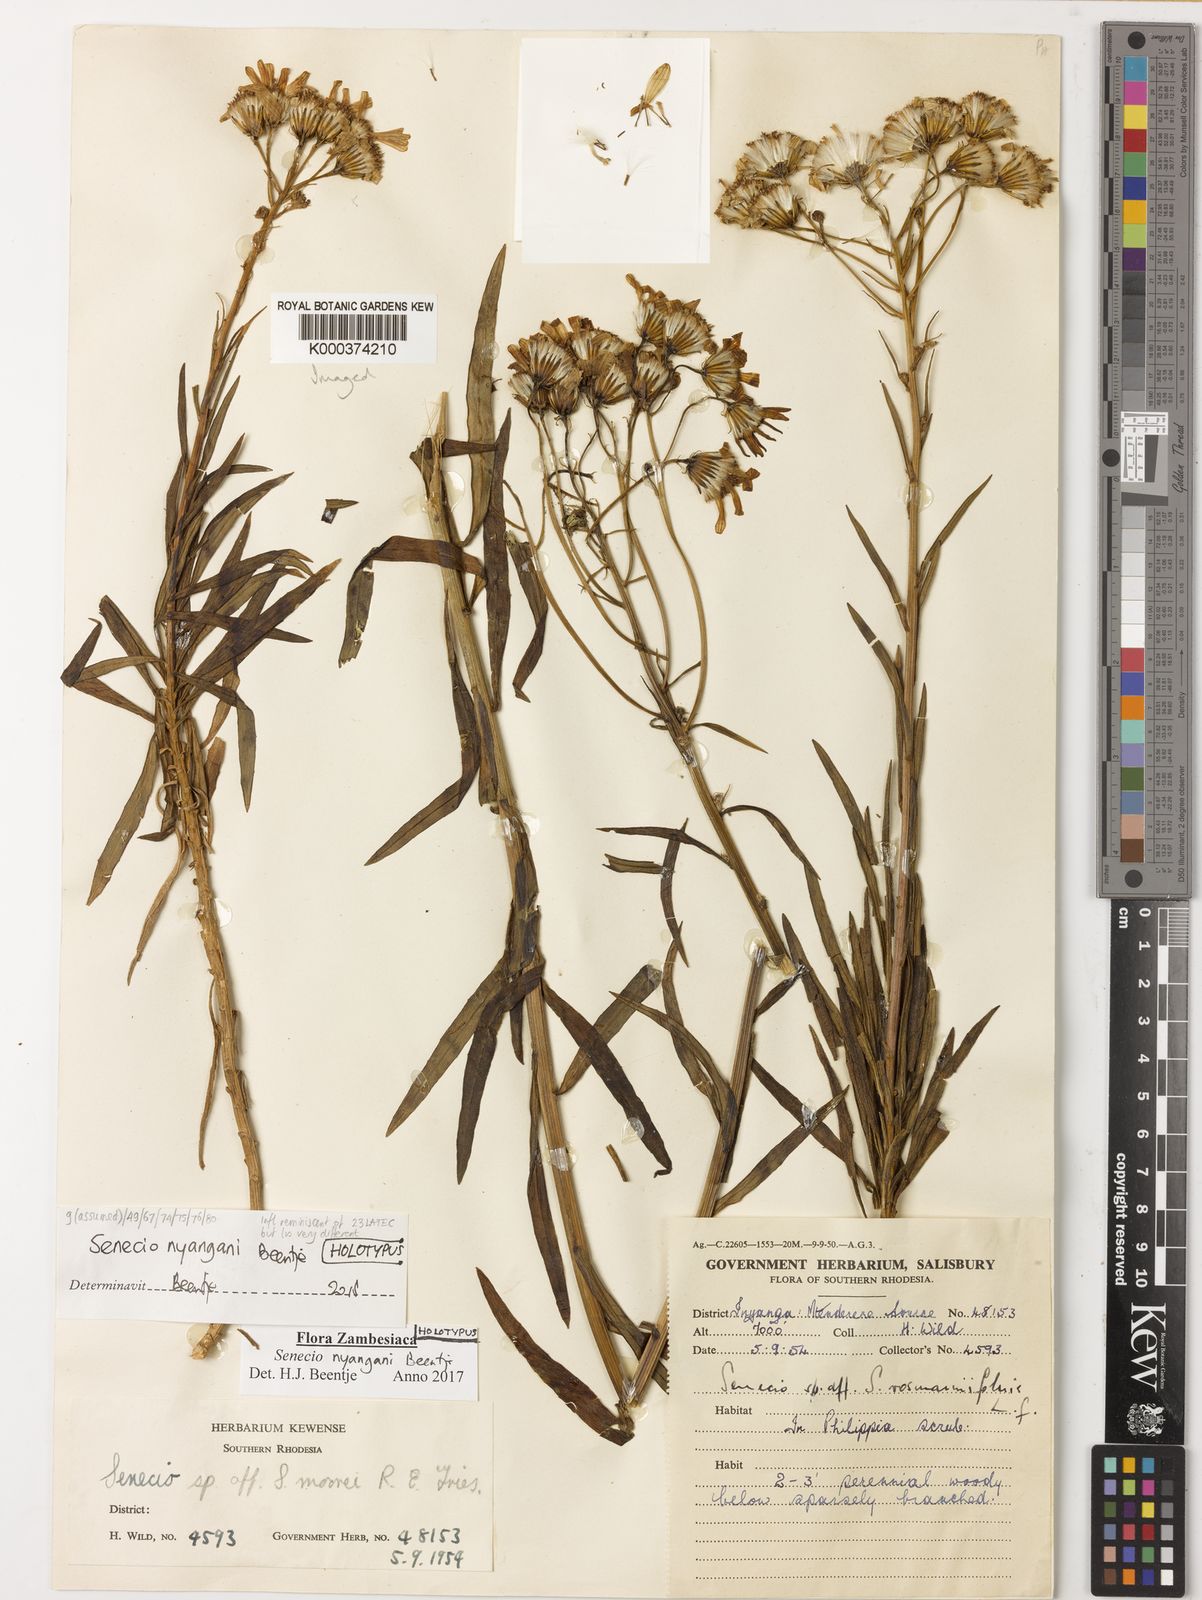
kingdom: Plantae
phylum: Tracheophyta
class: Magnoliopsida
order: Asterales
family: Asteraceae
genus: Senecio
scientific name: Senecio
